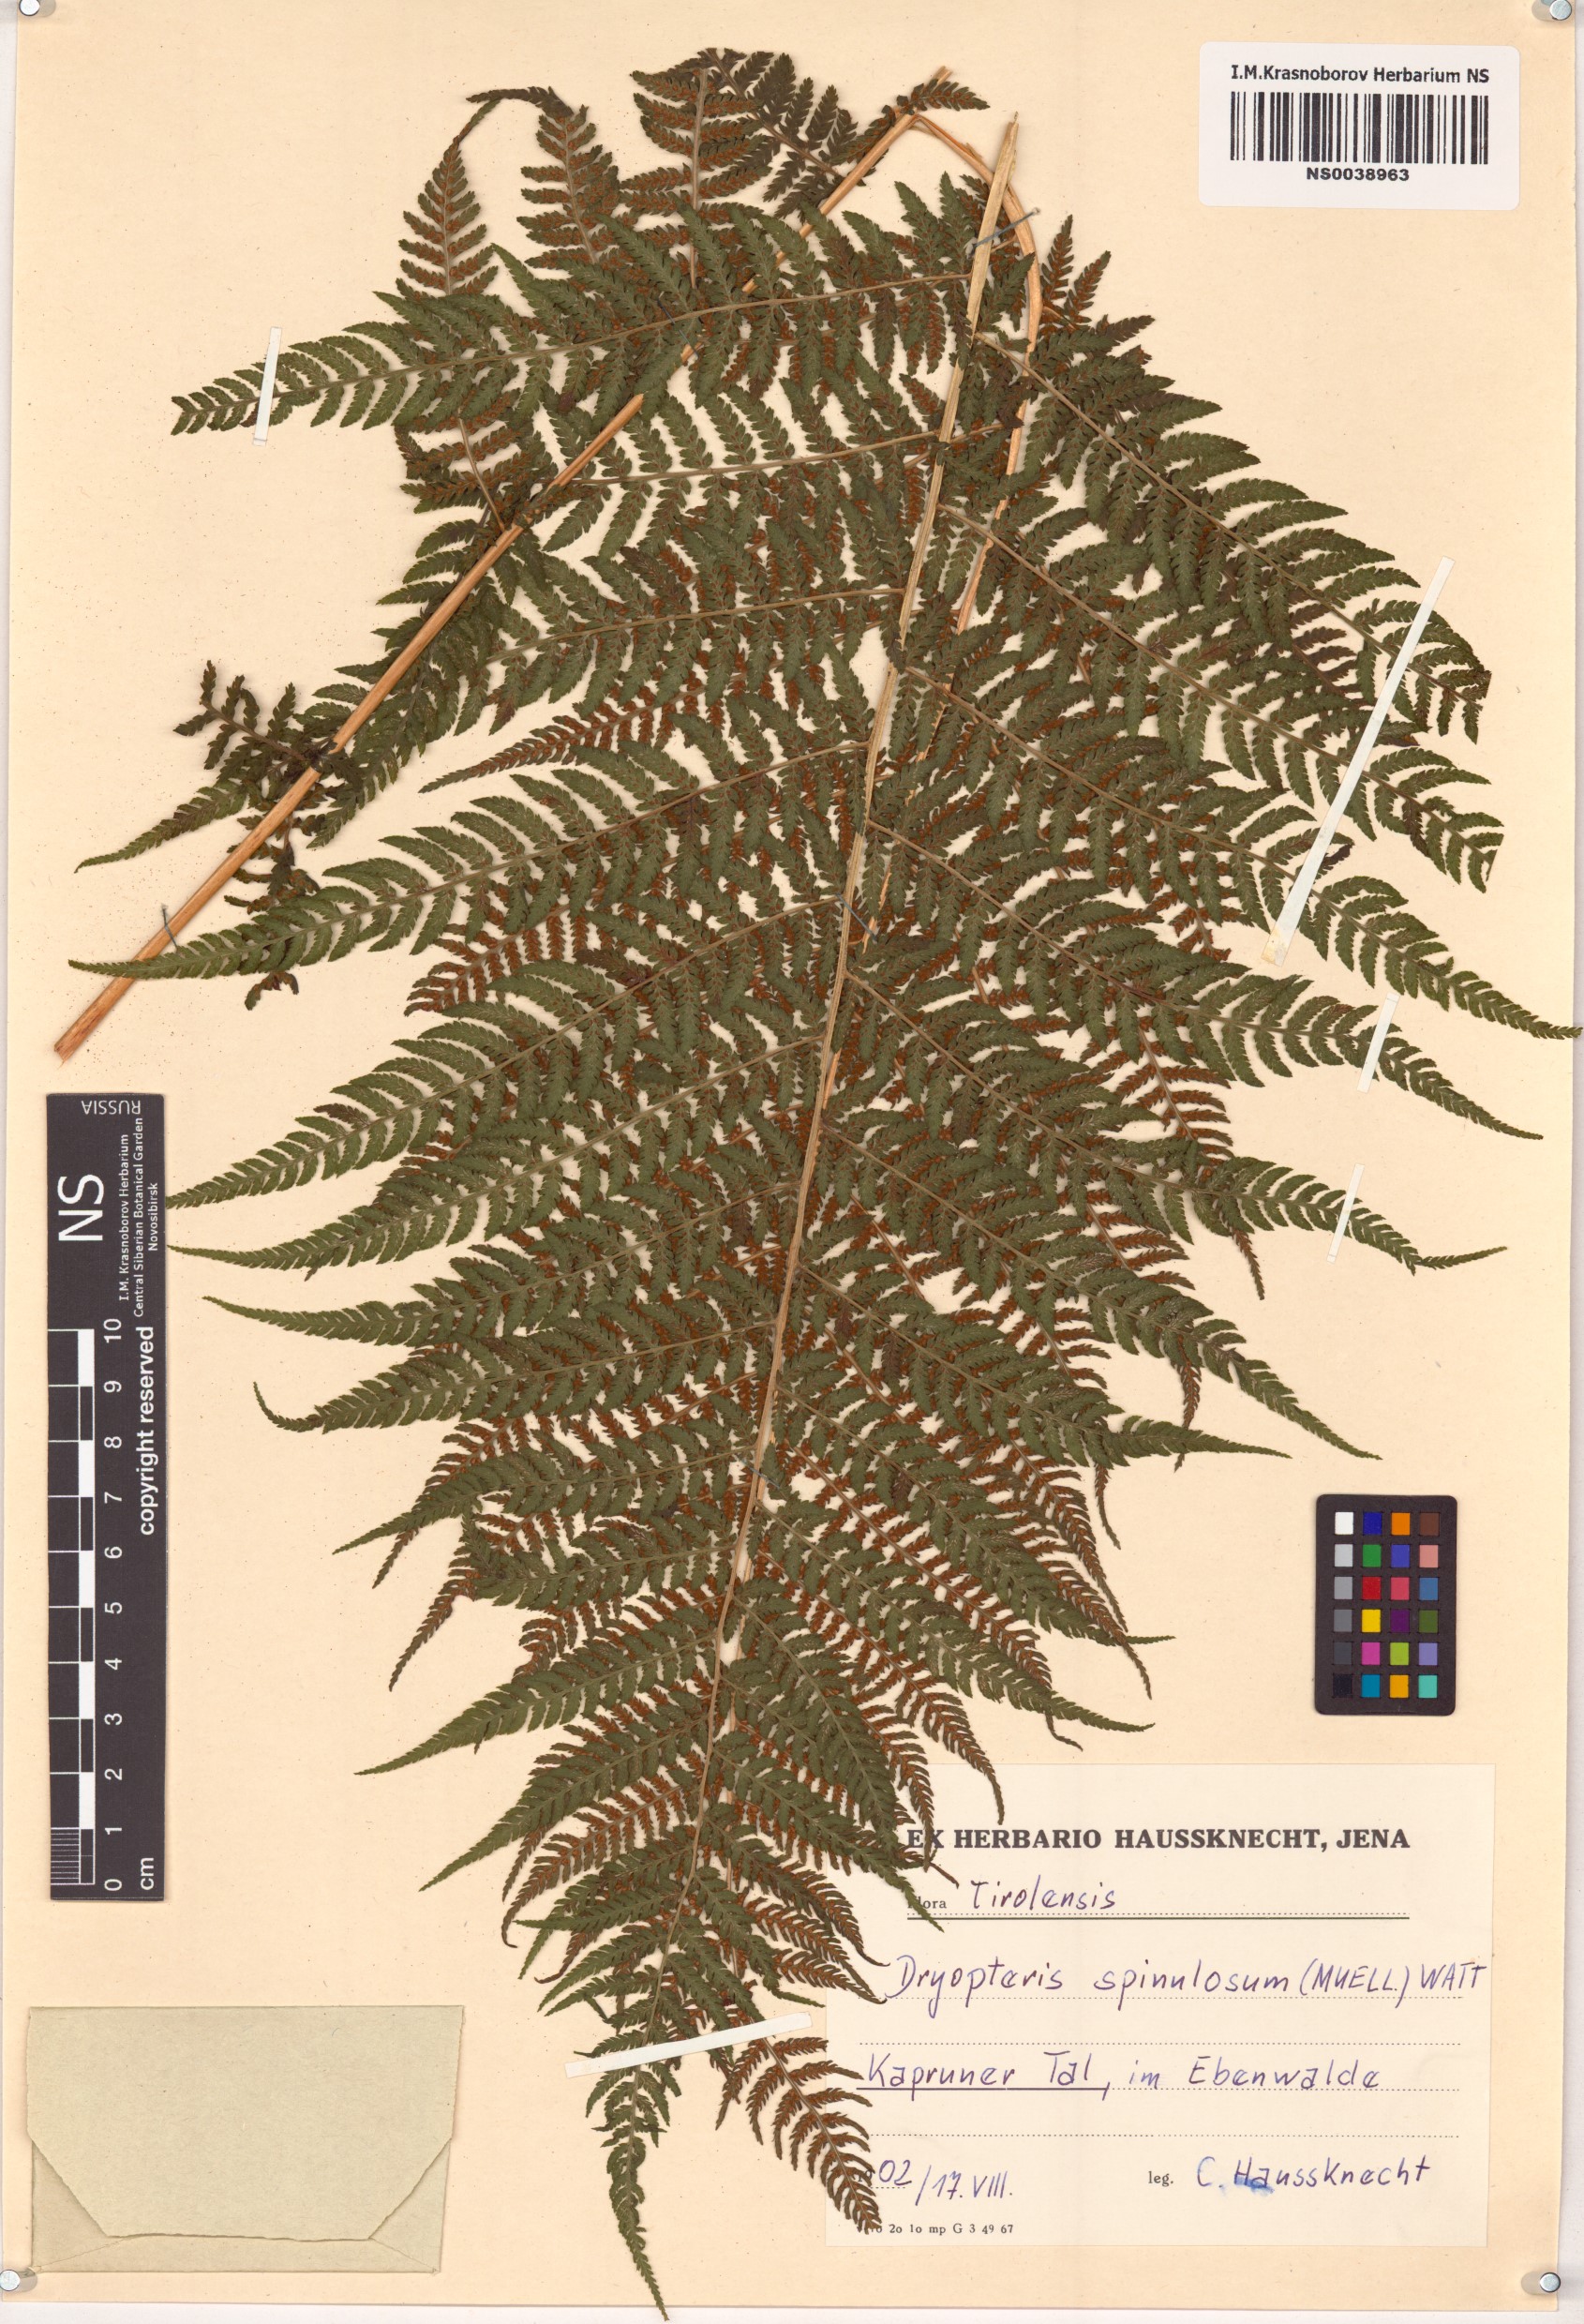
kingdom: Plantae
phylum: Tracheophyta
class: Polypodiopsida
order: Polypodiales
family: Dryopteridaceae
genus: Dryopteris
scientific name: Dryopteris carthusiana
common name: Narrow buckler-fern
